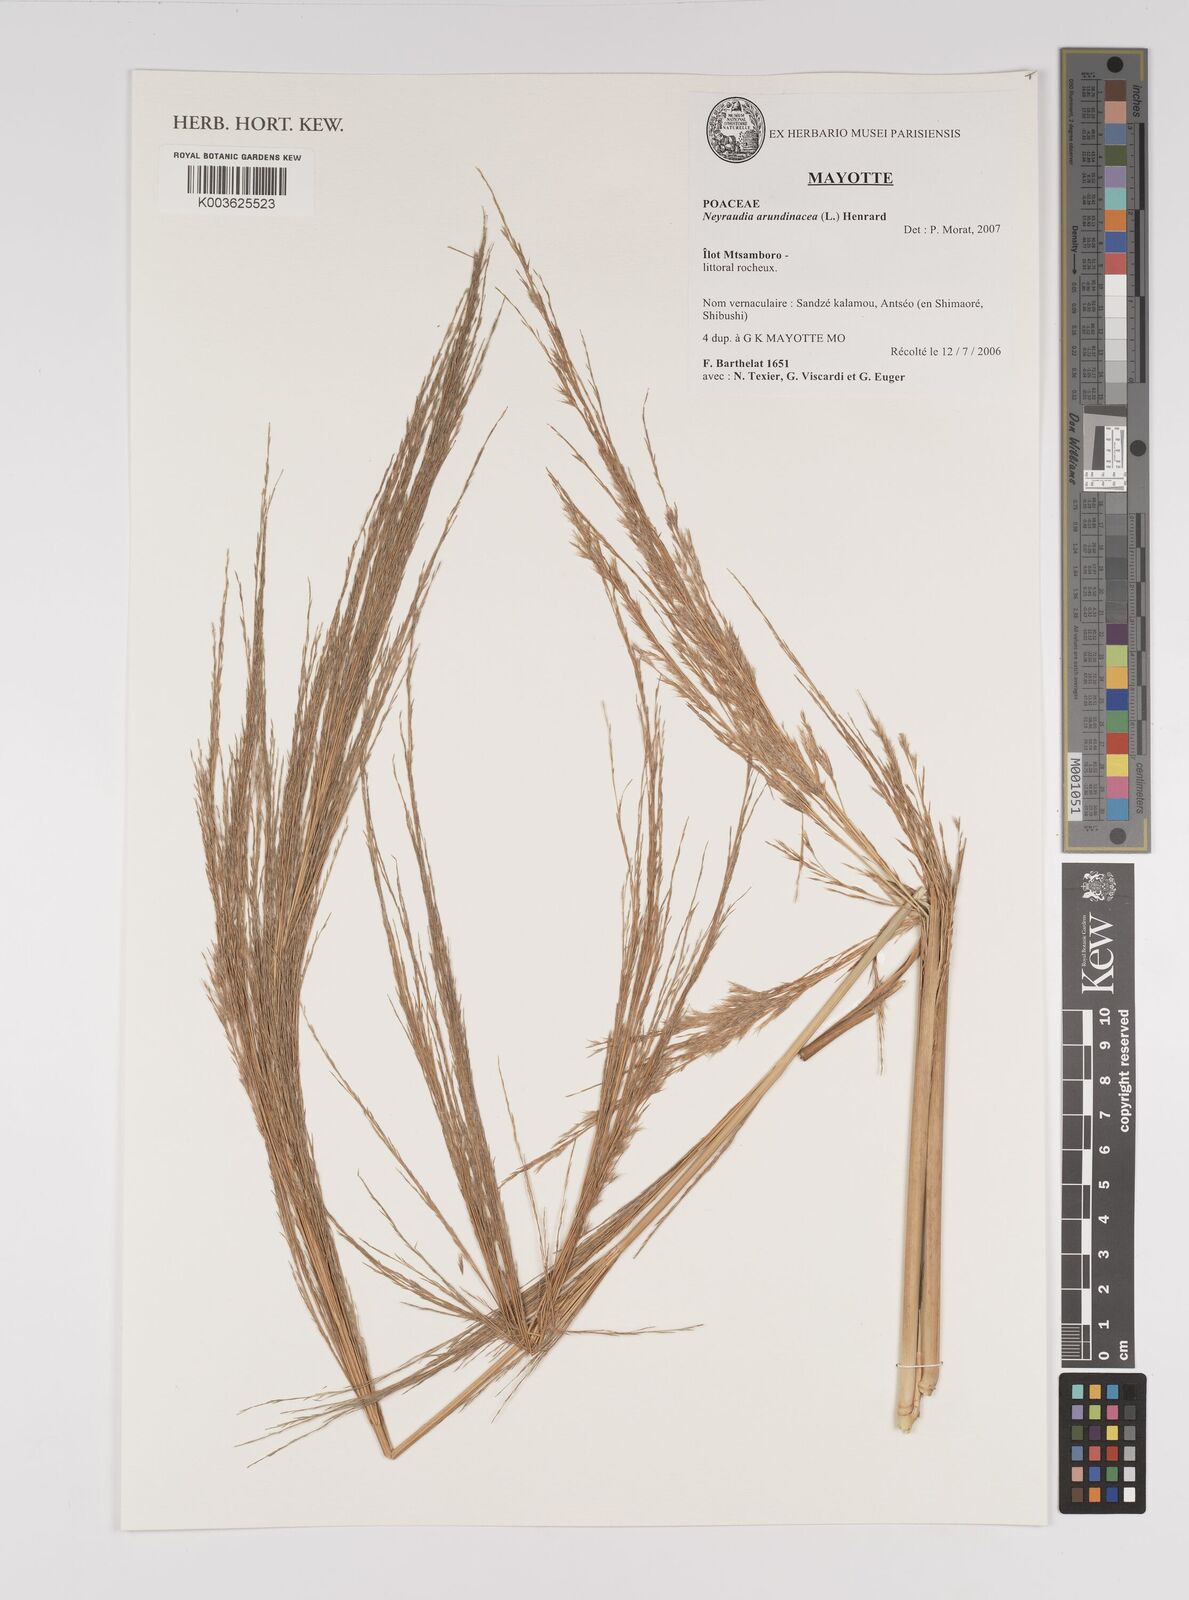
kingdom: Plantae
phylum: Tracheophyta
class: Liliopsida
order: Poales
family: Poaceae
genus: Neyraudia
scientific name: Neyraudia arundinacea
